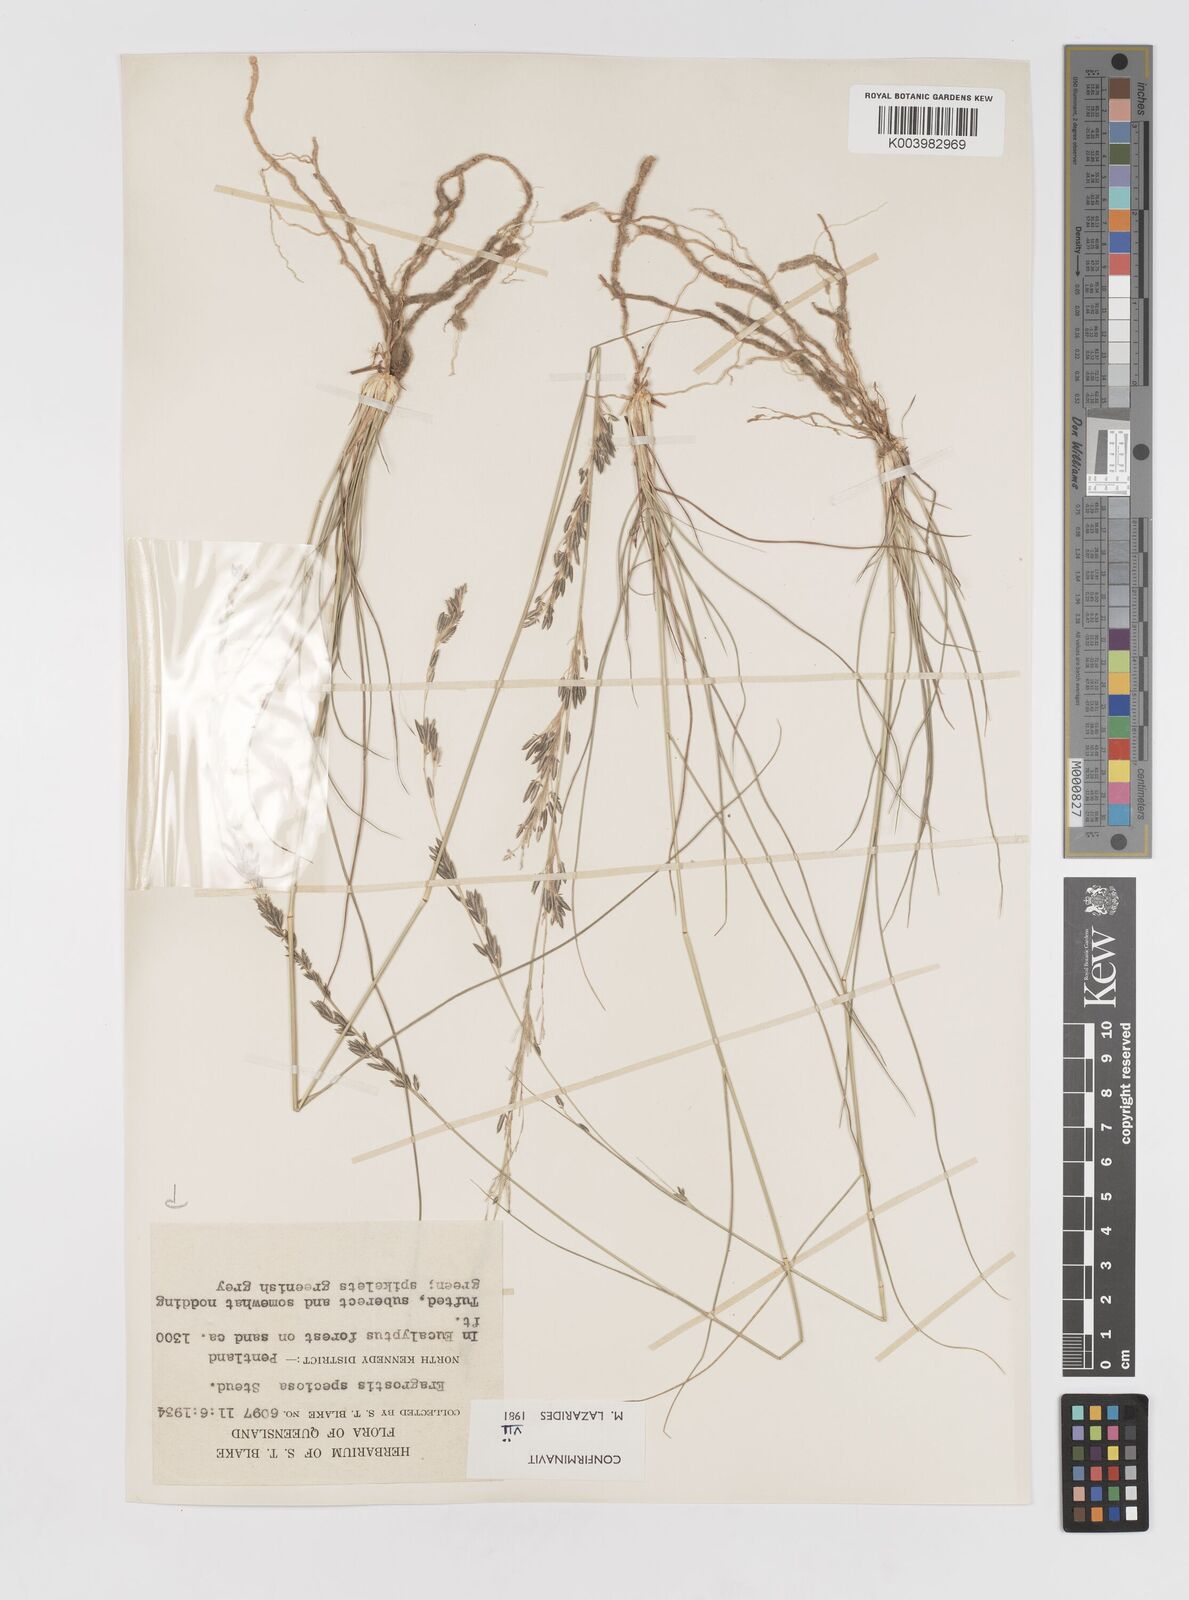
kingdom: Plantae
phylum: Tracheophyta
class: Liliopsida
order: Poales
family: Poaceae
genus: Eragrostis
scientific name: Eragrostis speciosa
